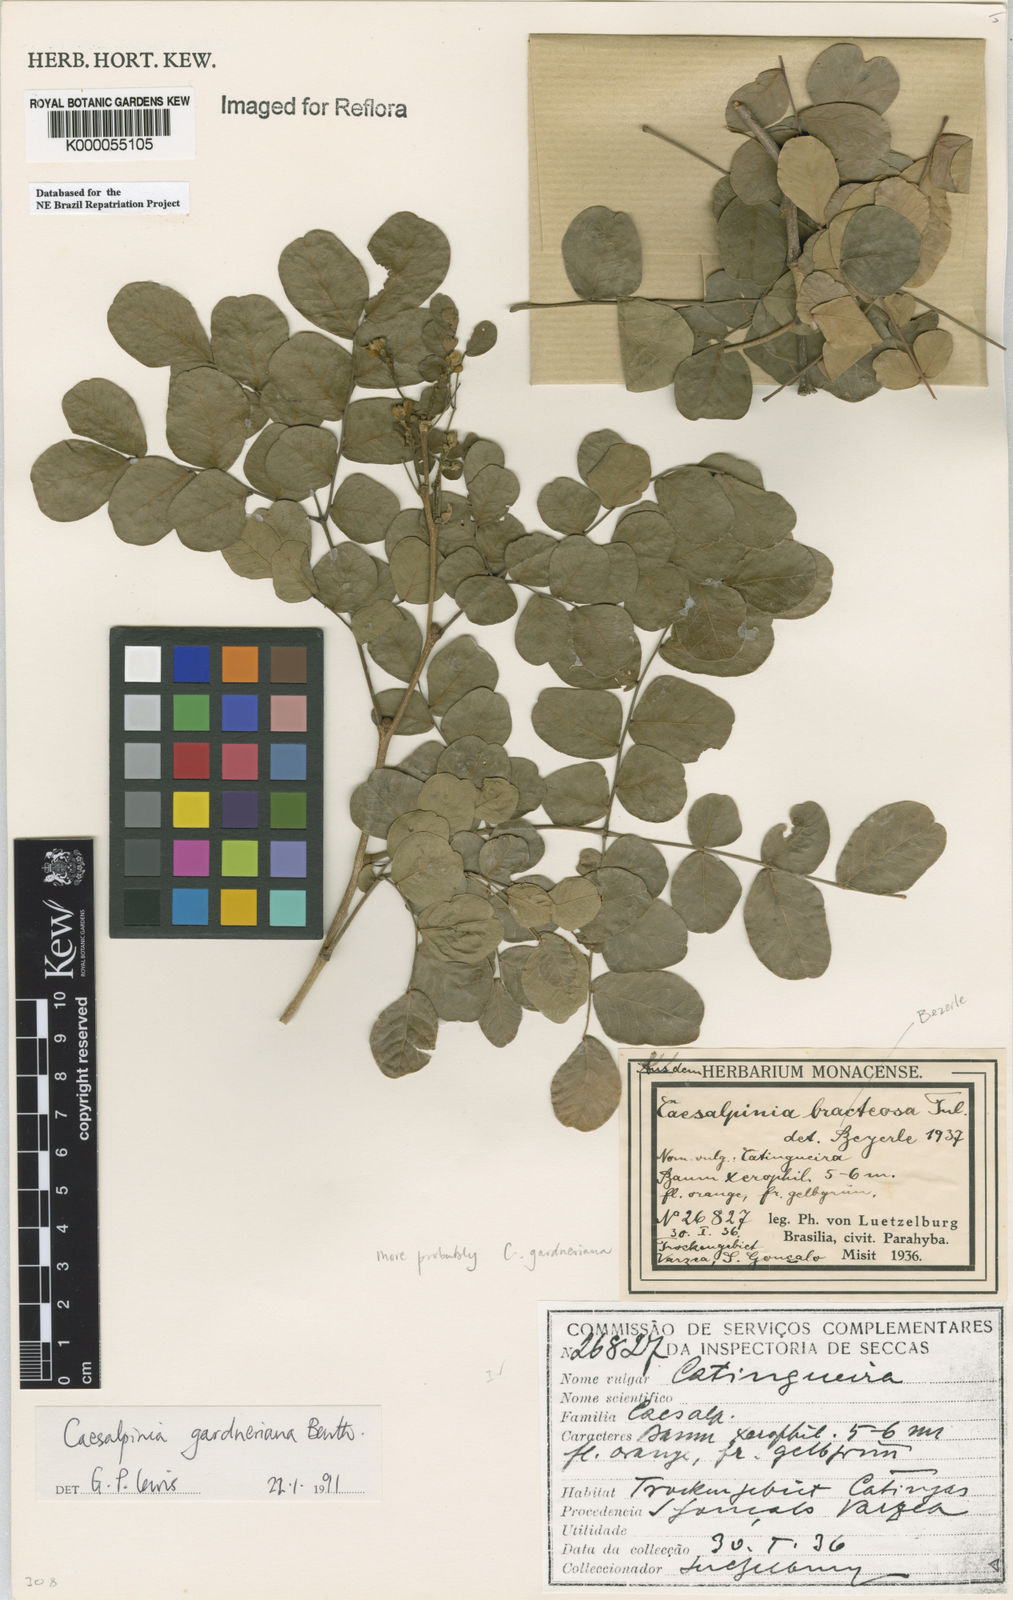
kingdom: Plantae
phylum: Tracheophyta
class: Magnoliopsida
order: Fabales
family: Fabaceae
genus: Cenostigma
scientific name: Cenostigma nordestinum
